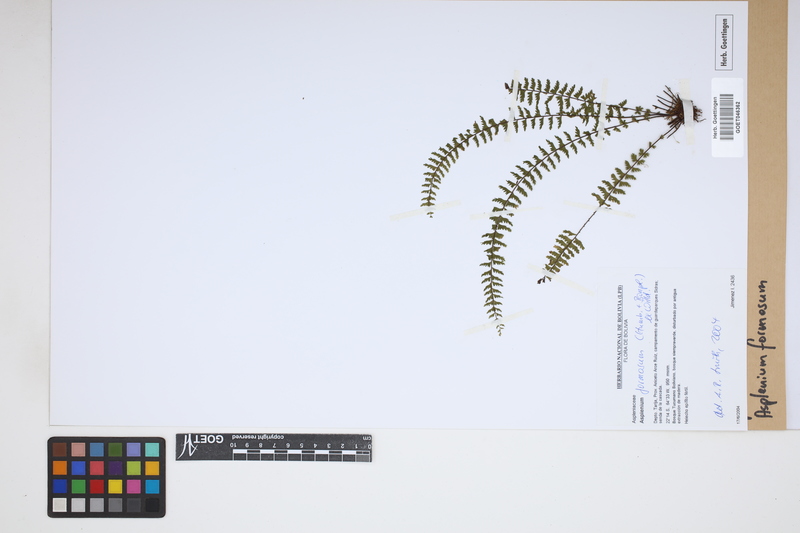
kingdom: Plantae
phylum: Tracheophyta
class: Polypodiopsida
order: Polypodiales
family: Aspleniaceae
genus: Asplenium
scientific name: Asplenium formosum
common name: Showy spleenwort
